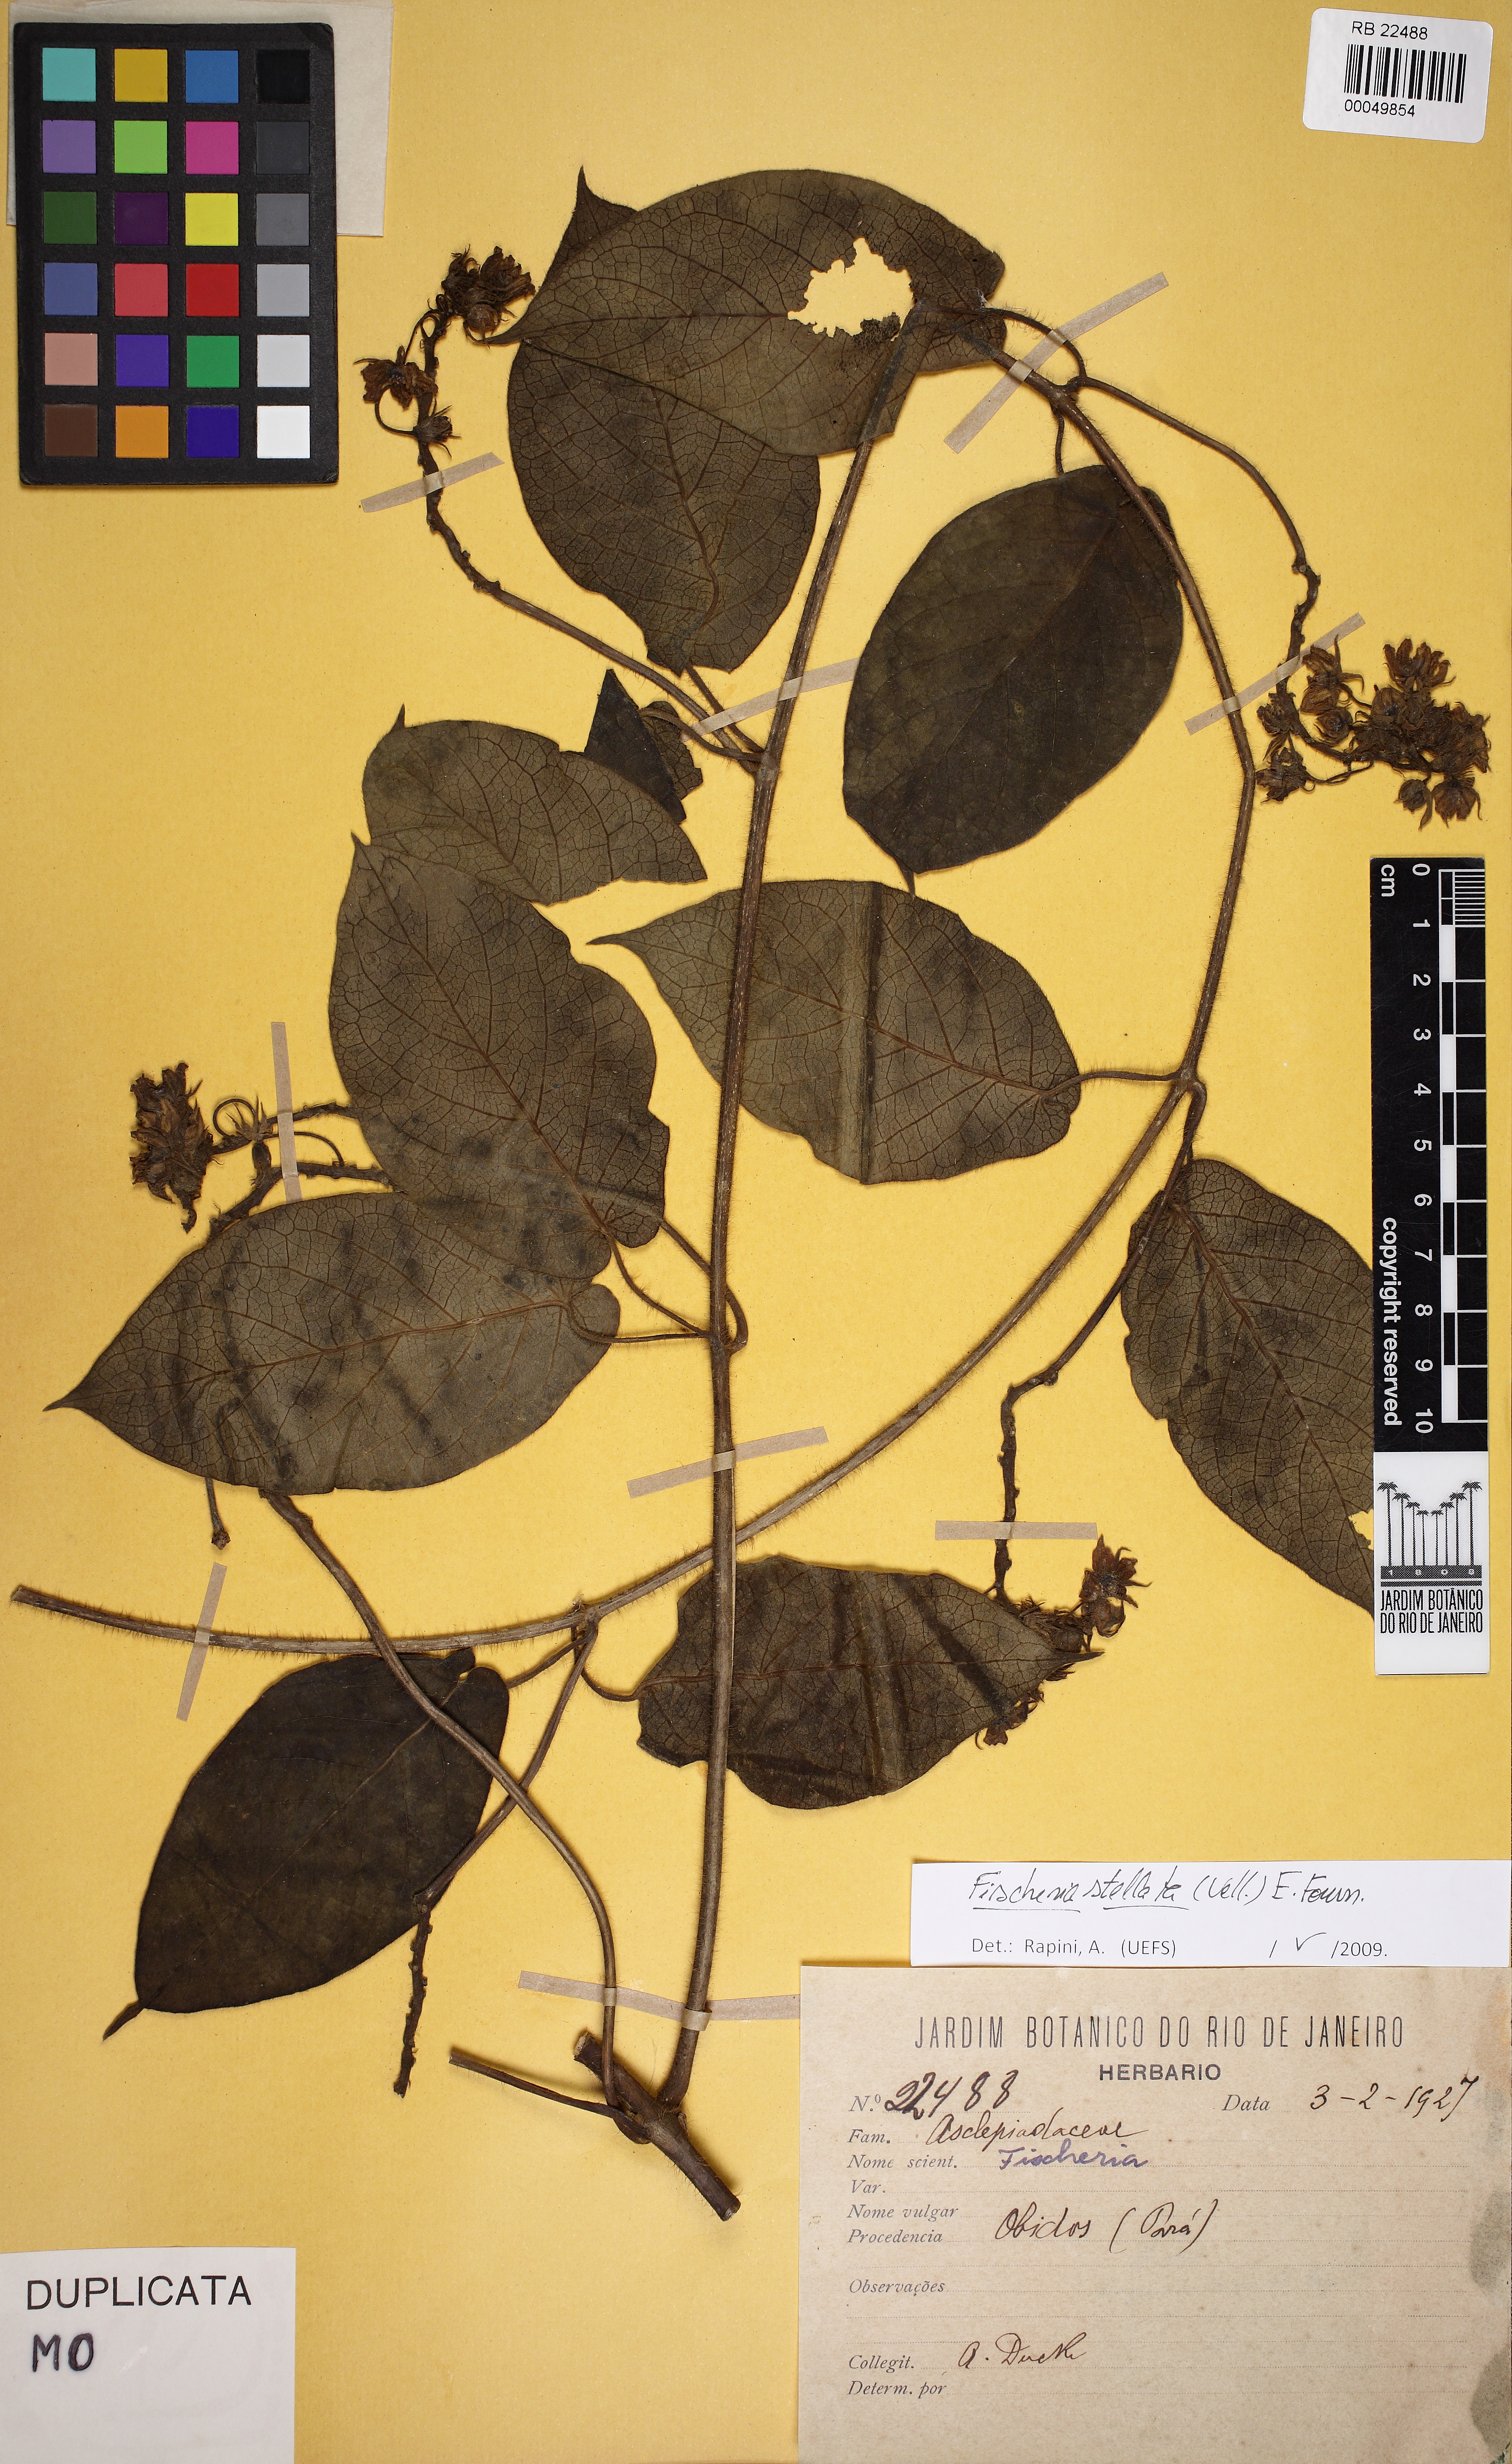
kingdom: Plantae
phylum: Tracheophyta
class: Magnoliopsida
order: Gentianales
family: Apocynaceae
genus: Fischeria
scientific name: Fischeria stellata
